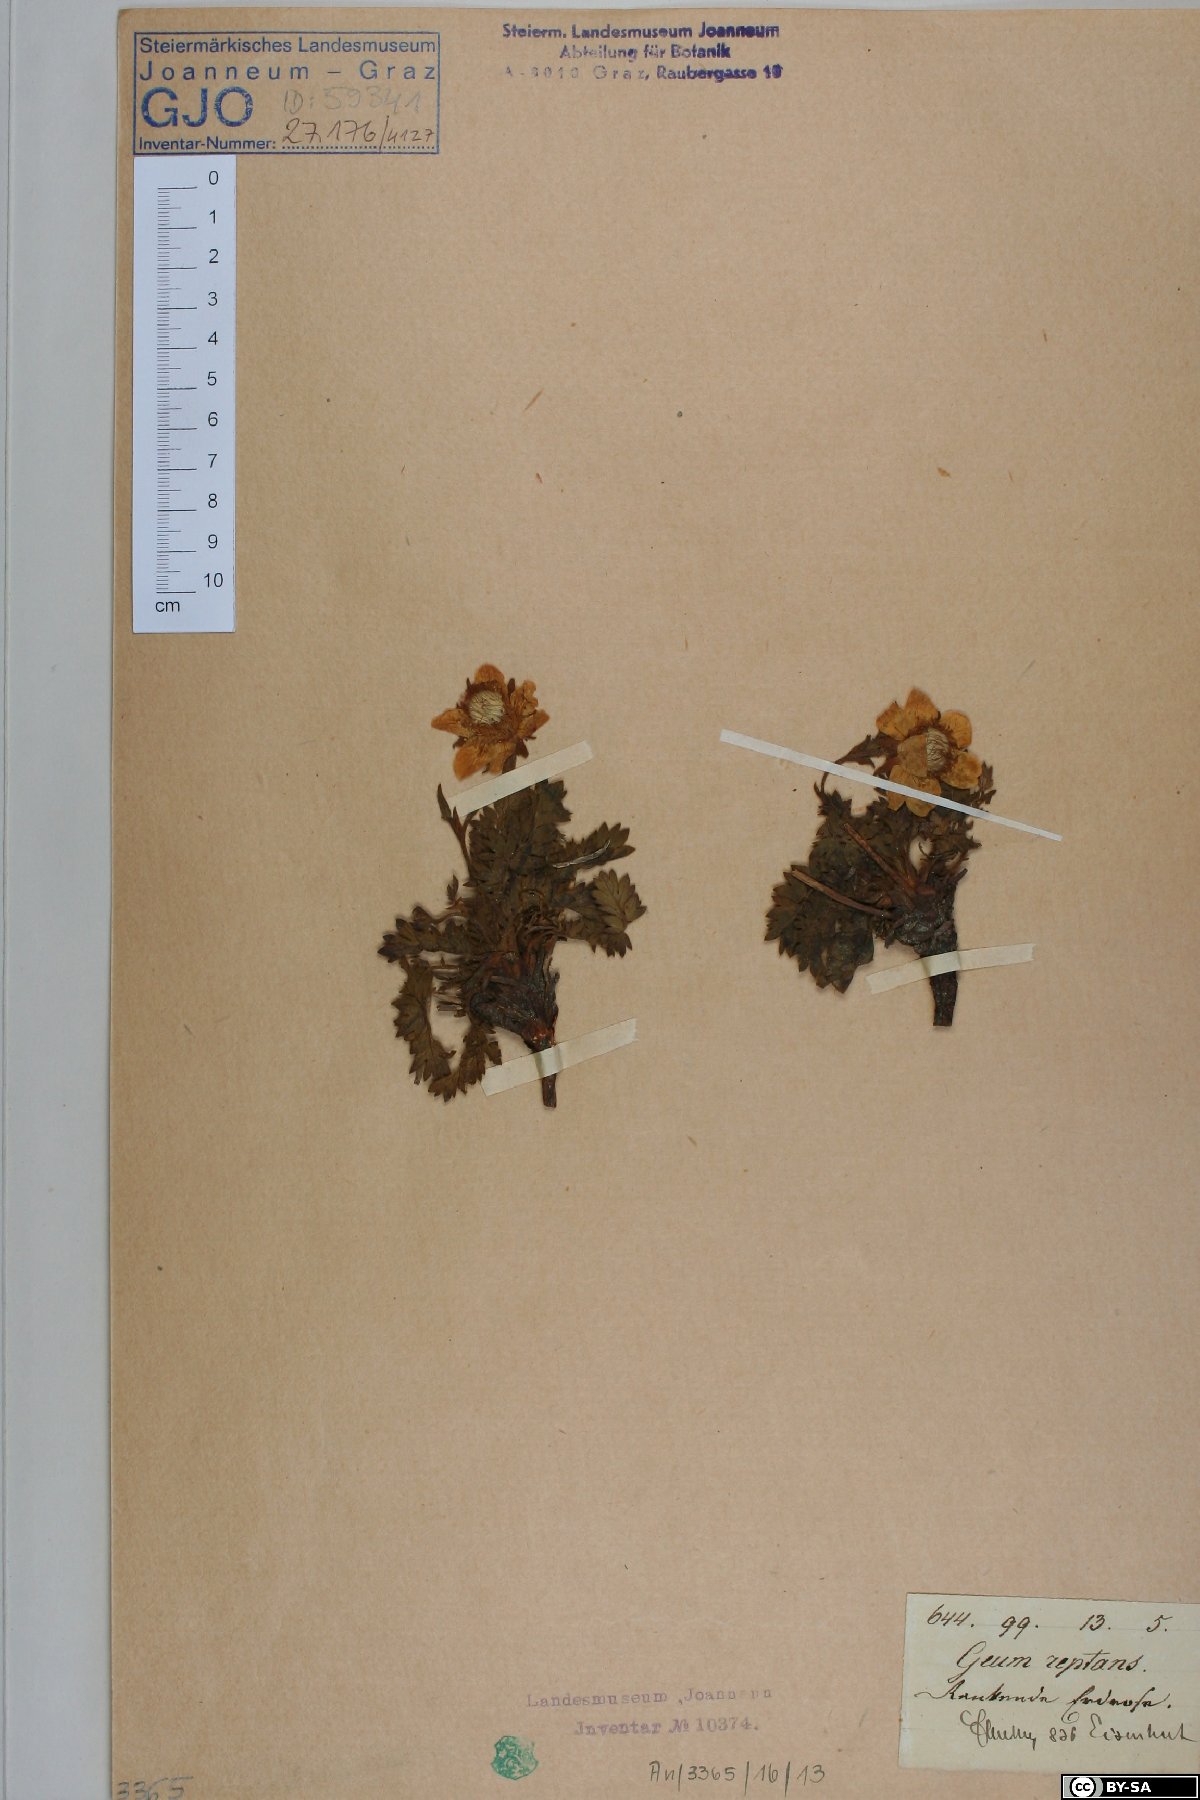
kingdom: Plantae
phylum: Tracheophyta
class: Magnoliopsida
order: Rosales
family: Rosaceae
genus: Geum
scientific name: Geum reptans
